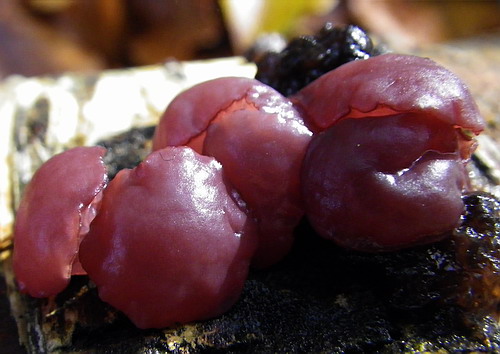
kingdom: Fungi
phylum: Ascomycota
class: Leotiomycetes
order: Helotiales
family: Gelatinodiscaceae
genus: Ascocoryne
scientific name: Ascocoryne cylichnium
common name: stor sejskive
